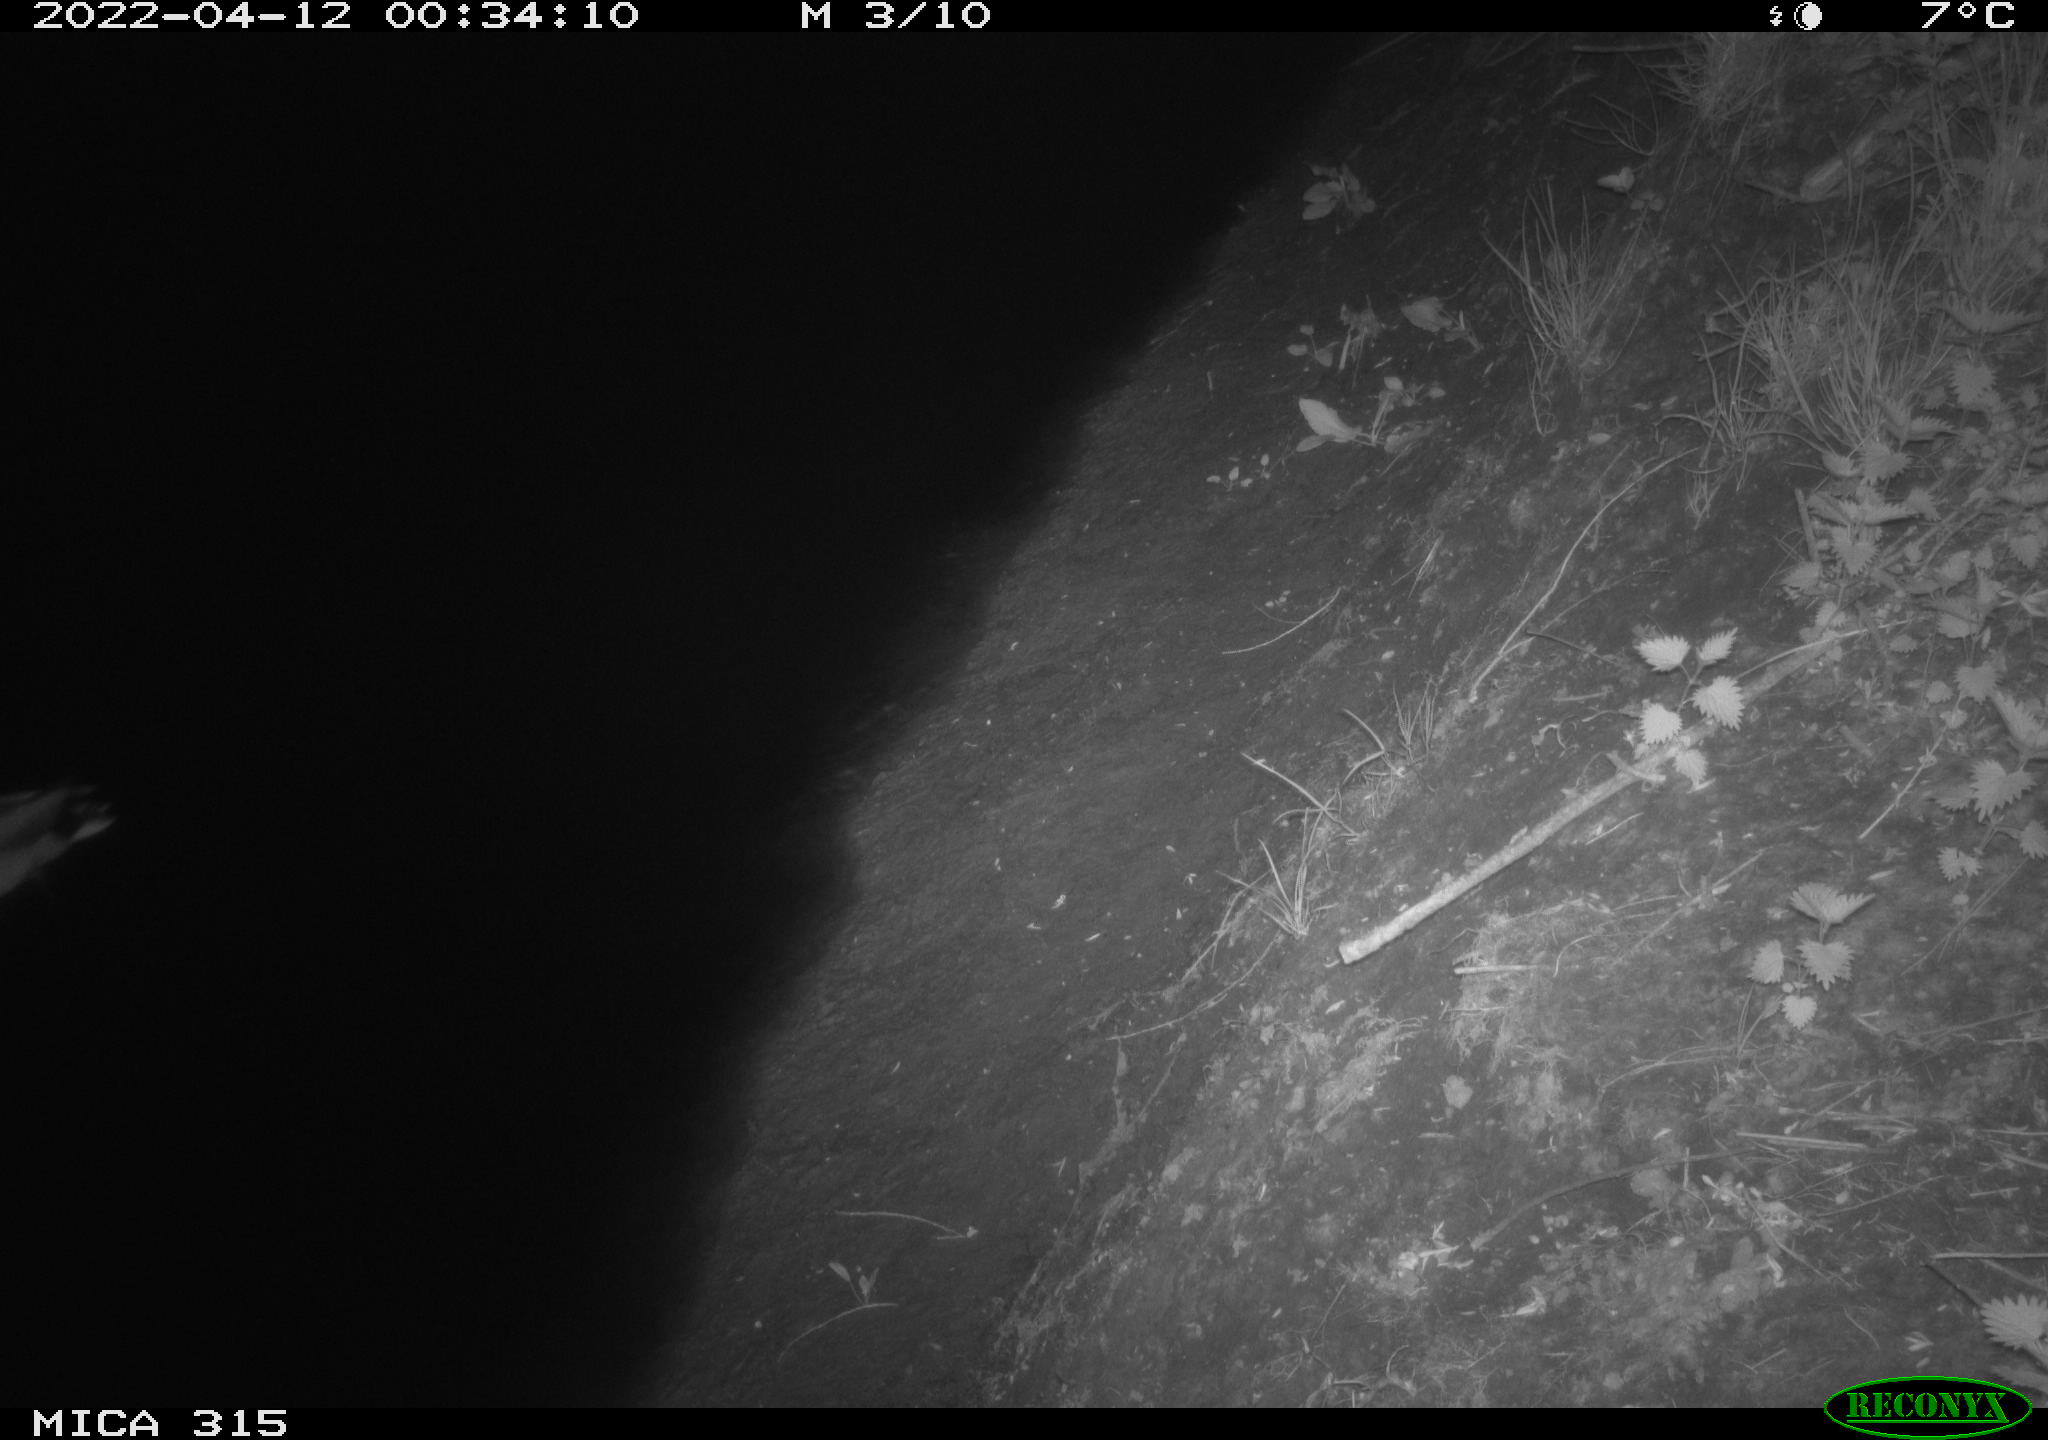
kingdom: Animalia
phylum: Chordata
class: Aves
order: Anseriformes
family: Anatidae
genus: Anas
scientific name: Anas platyrhynchos
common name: Mallard
